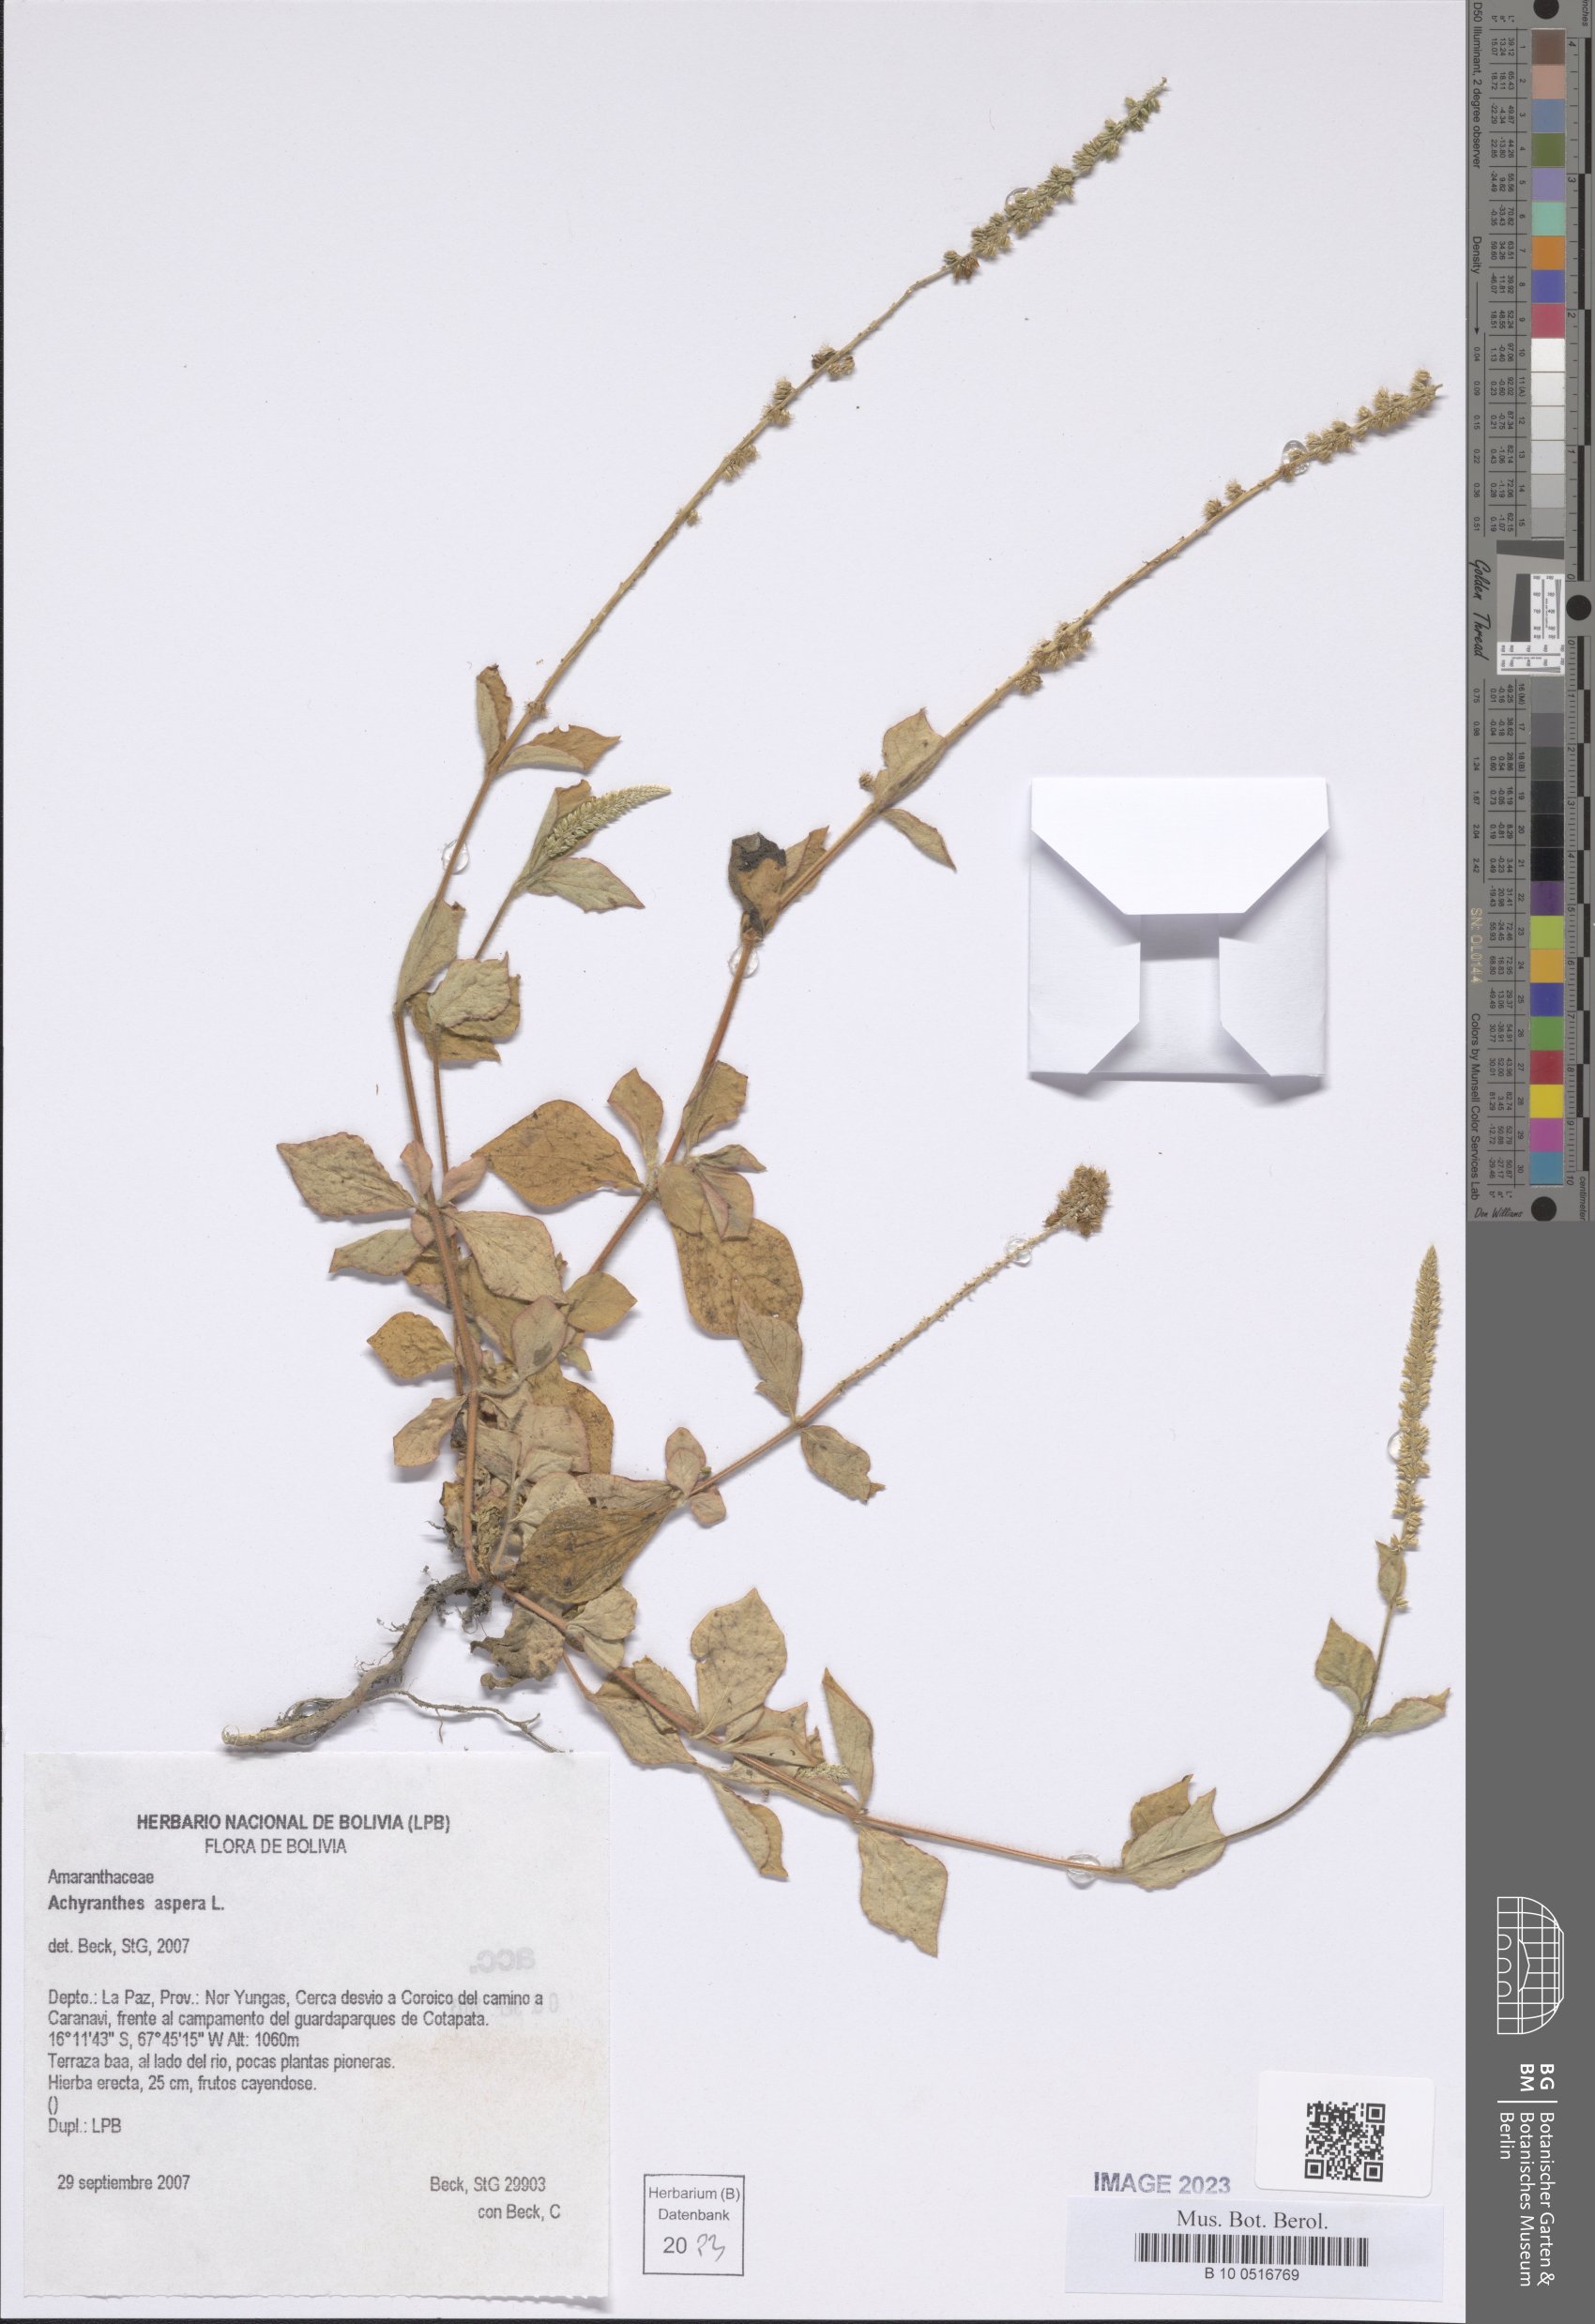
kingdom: Plantae
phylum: Tracheophyta
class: Magnoliopsida
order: Caryophyllales
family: Amaranthaceae
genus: Achyranthes
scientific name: Achyranthes aspera
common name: Devil's horsewhip
